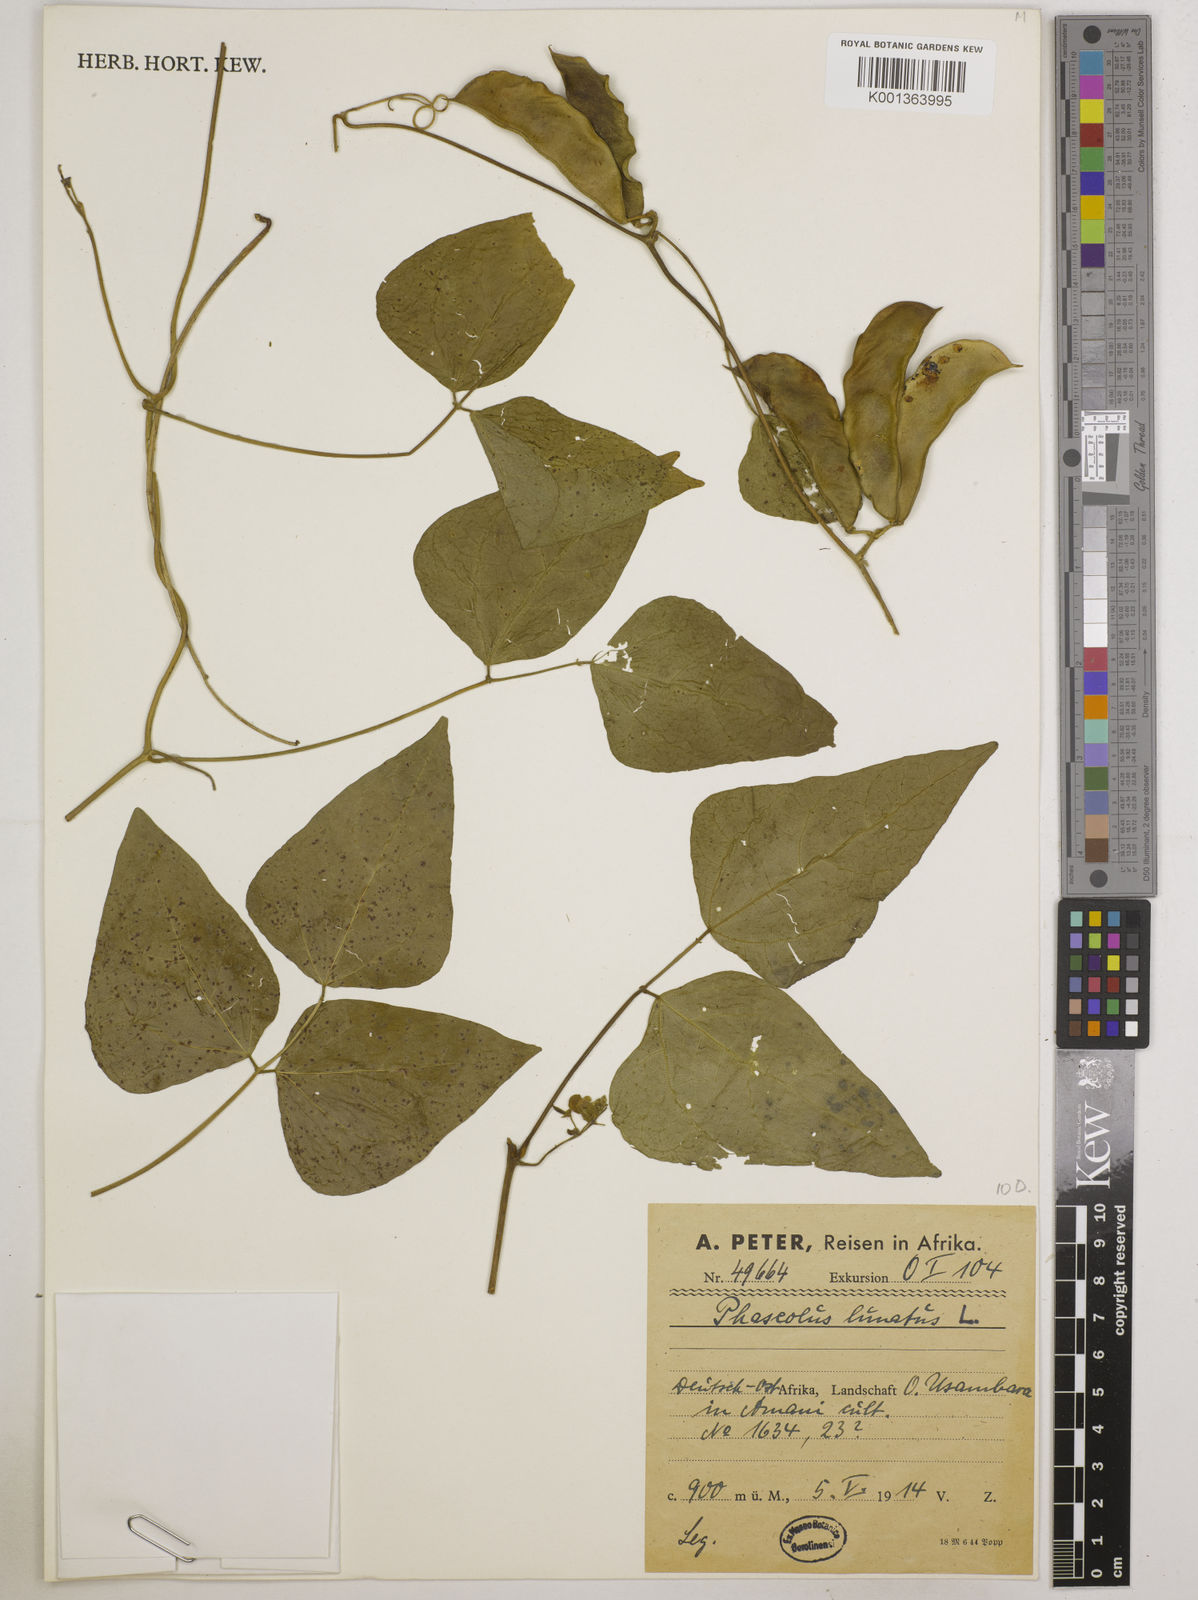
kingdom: Plantae
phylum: Tracheophyta
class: Magnoliopsida
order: Fabales
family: Fabaceae
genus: Phaseolus
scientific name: Phaseolus lunatus
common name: Sieva bean
